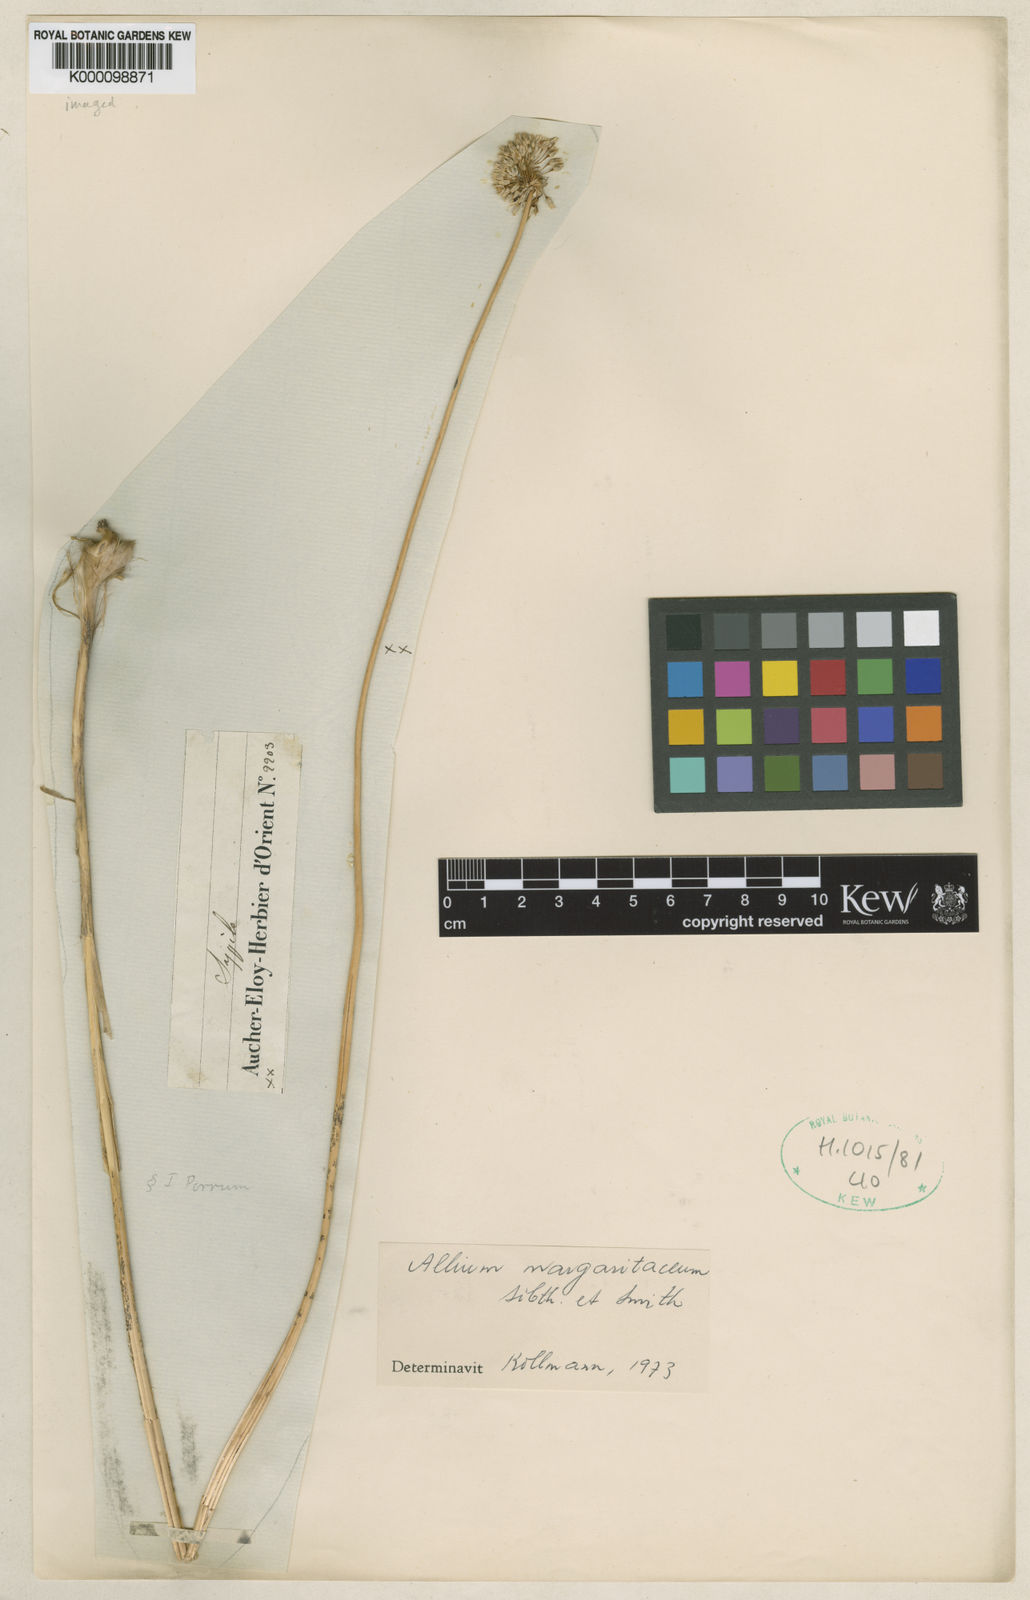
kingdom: Plantae
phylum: Tracheophyta
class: Liliopsida
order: Asparagales
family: Amaryllidaceae
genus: Allium
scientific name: Allium sardoum
